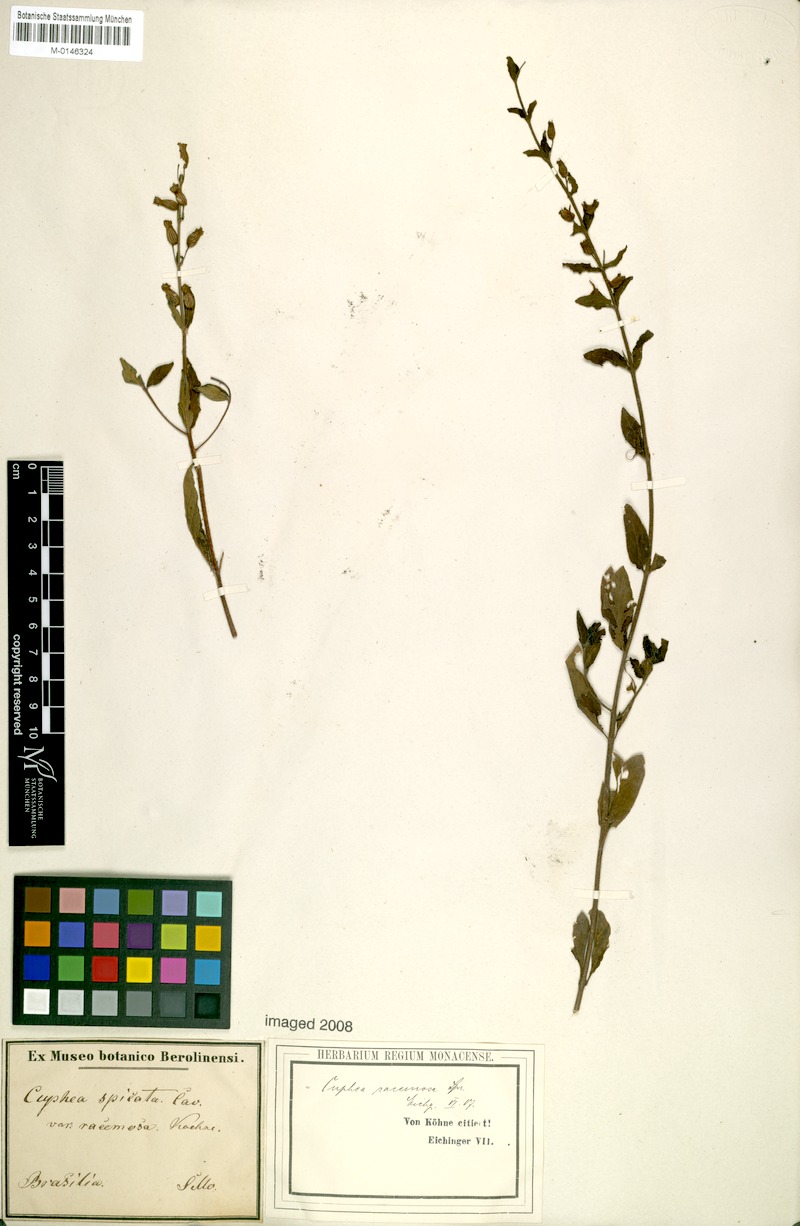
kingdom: Plantae
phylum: Tracheophyta
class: Magnoliopsida
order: Myrtales
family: Lythraceae
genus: Cuphea
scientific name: Cuphea racemosa
